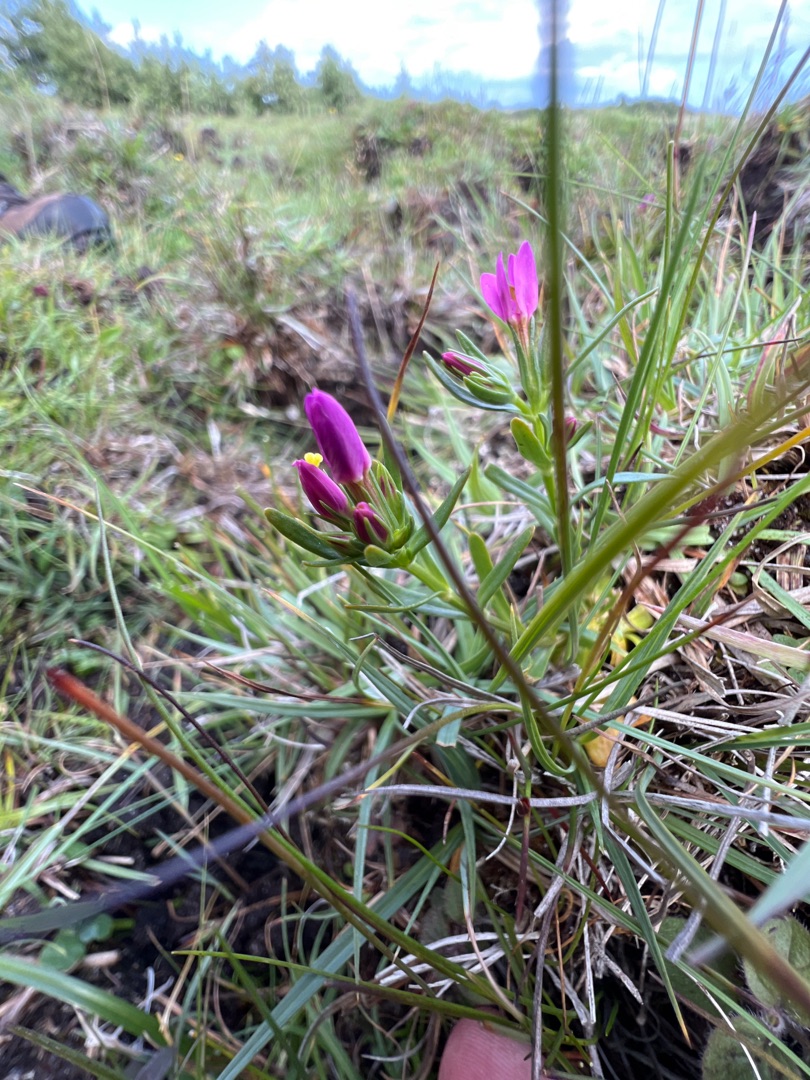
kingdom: Plantae
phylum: Tracheophyta
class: Magnoliopsida
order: Gentianales
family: Gentianaceae
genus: Centaurium
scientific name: Centaurium littorale
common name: Strand-tusindgylden
